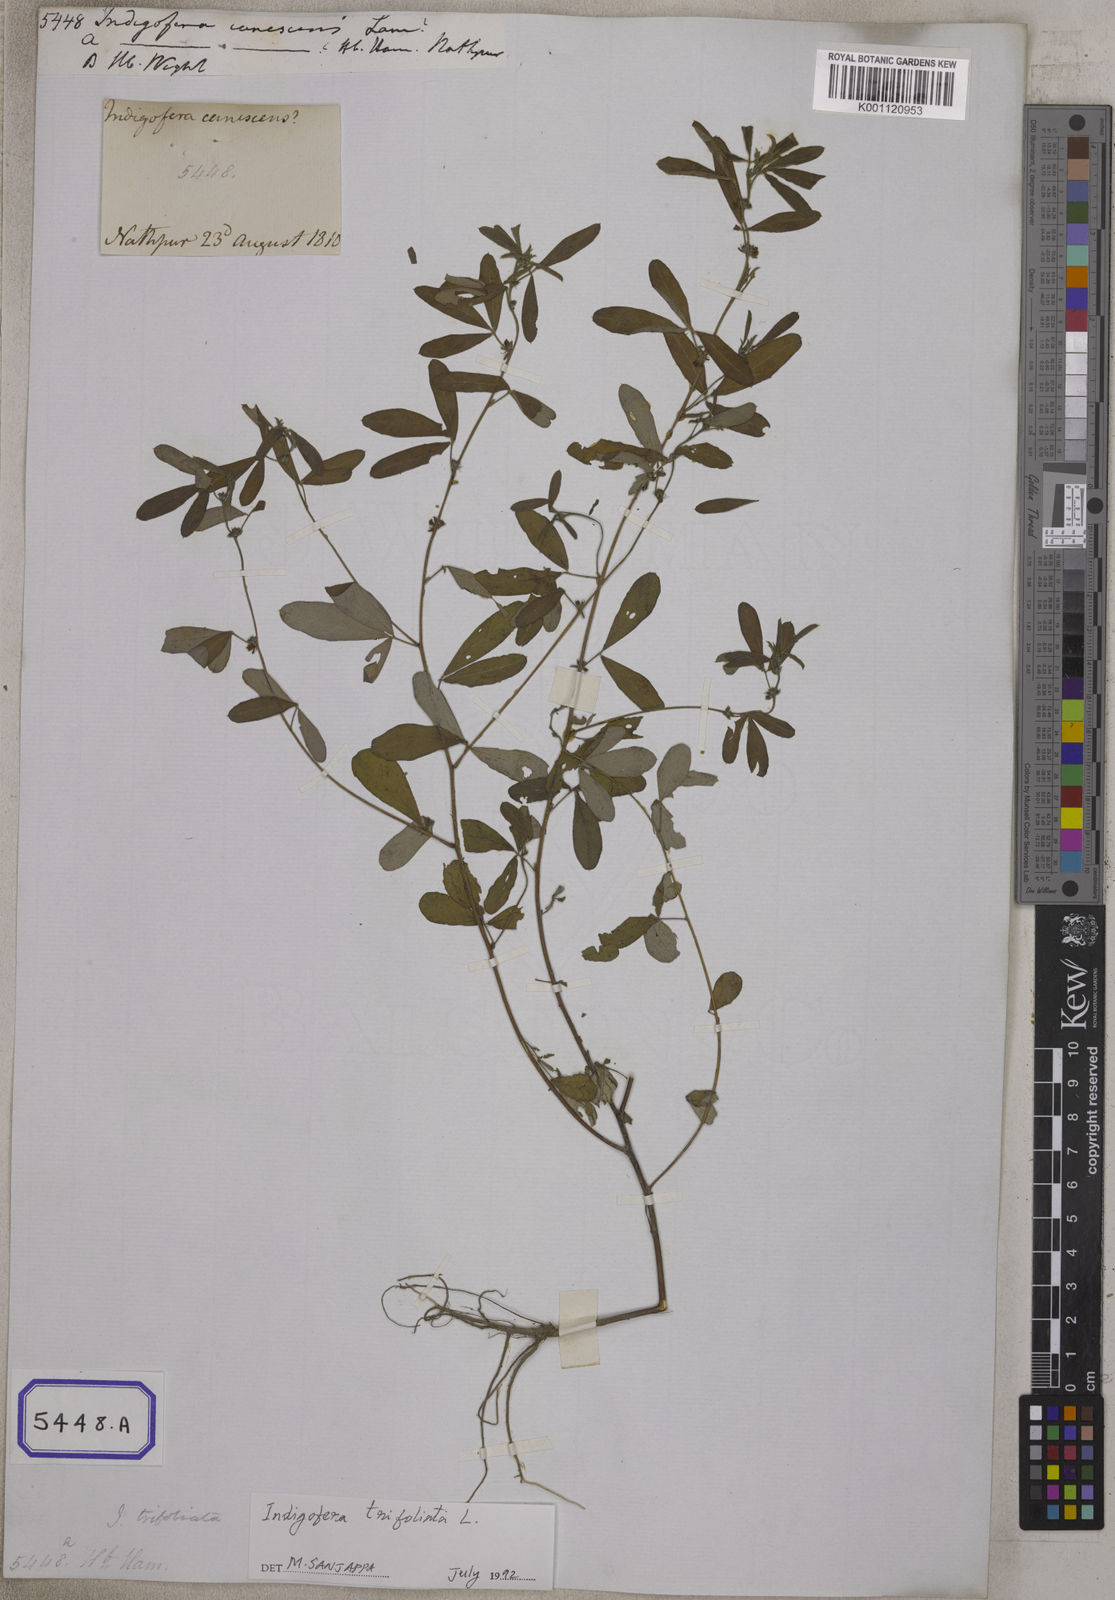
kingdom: Plantae
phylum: Tracheophyta
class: Magnoliopsida
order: Fabales
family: Fabaceae
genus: Indigofera
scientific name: Indigofera trita
